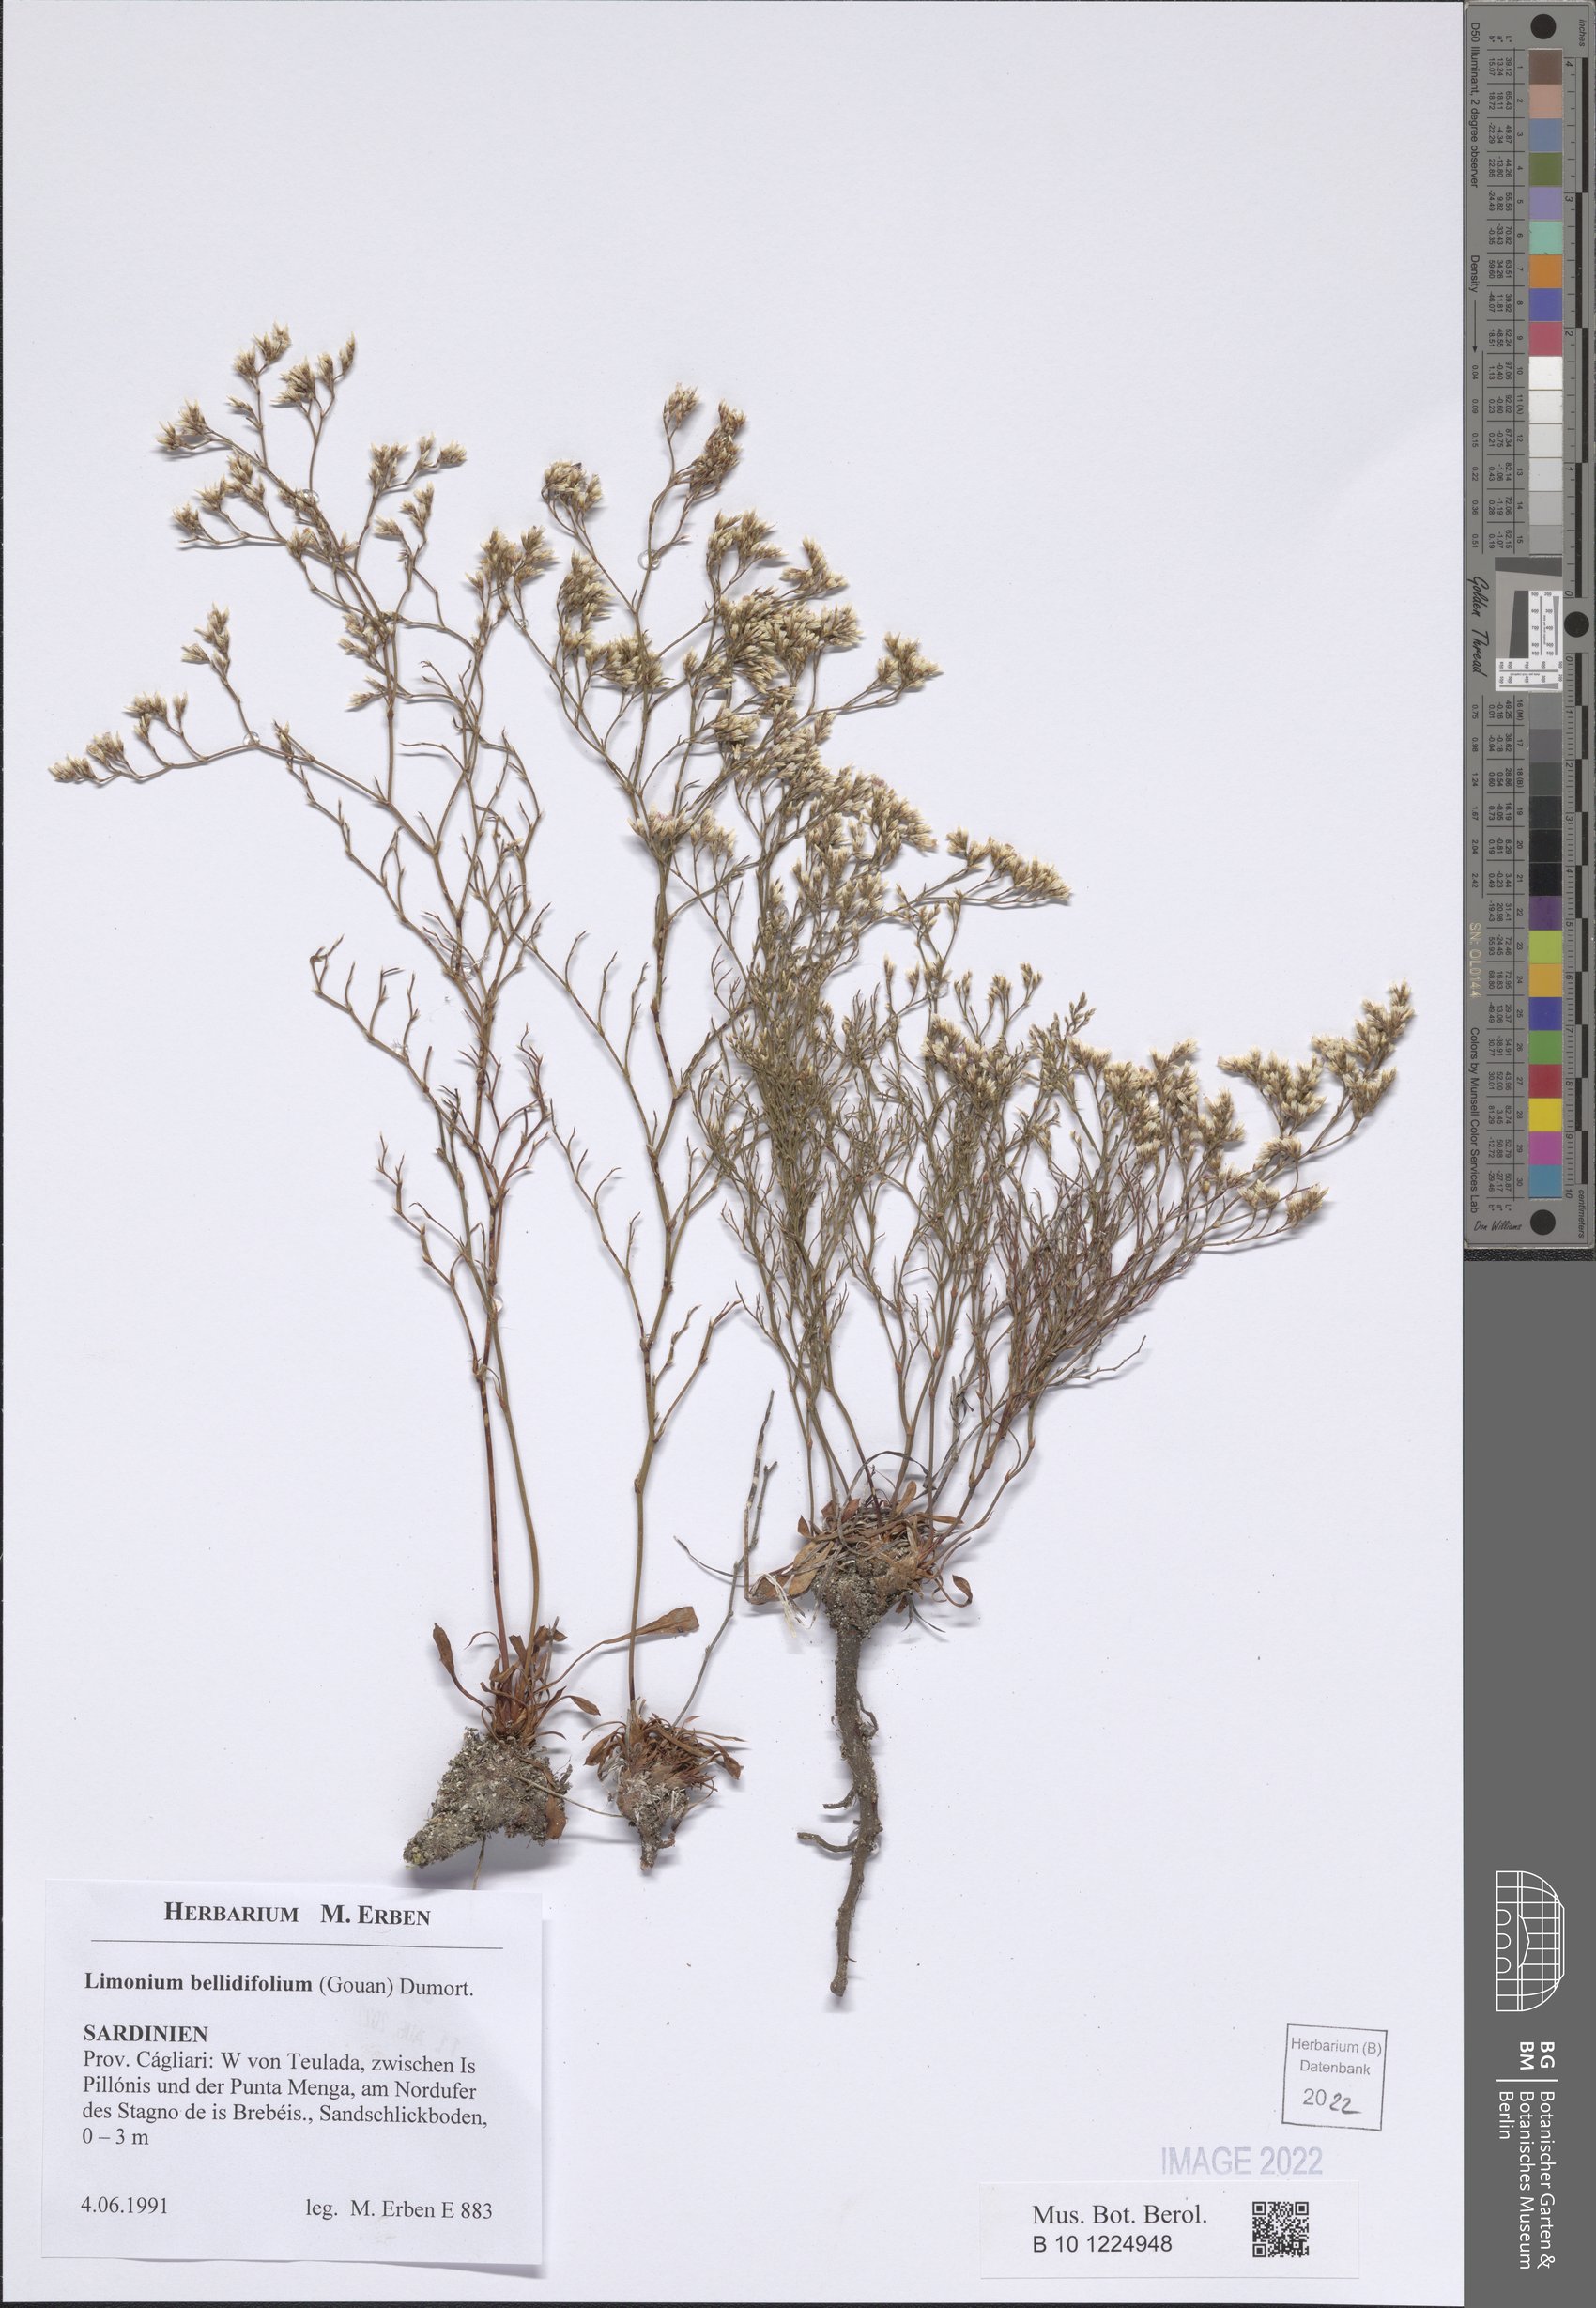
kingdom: Plantae
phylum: Tracheophyta
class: Magnoliopsida
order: Caryophyllales
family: Plumbaginaceae
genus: Limonium
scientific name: Limonium bellidifolium
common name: Matted sea-lavender
